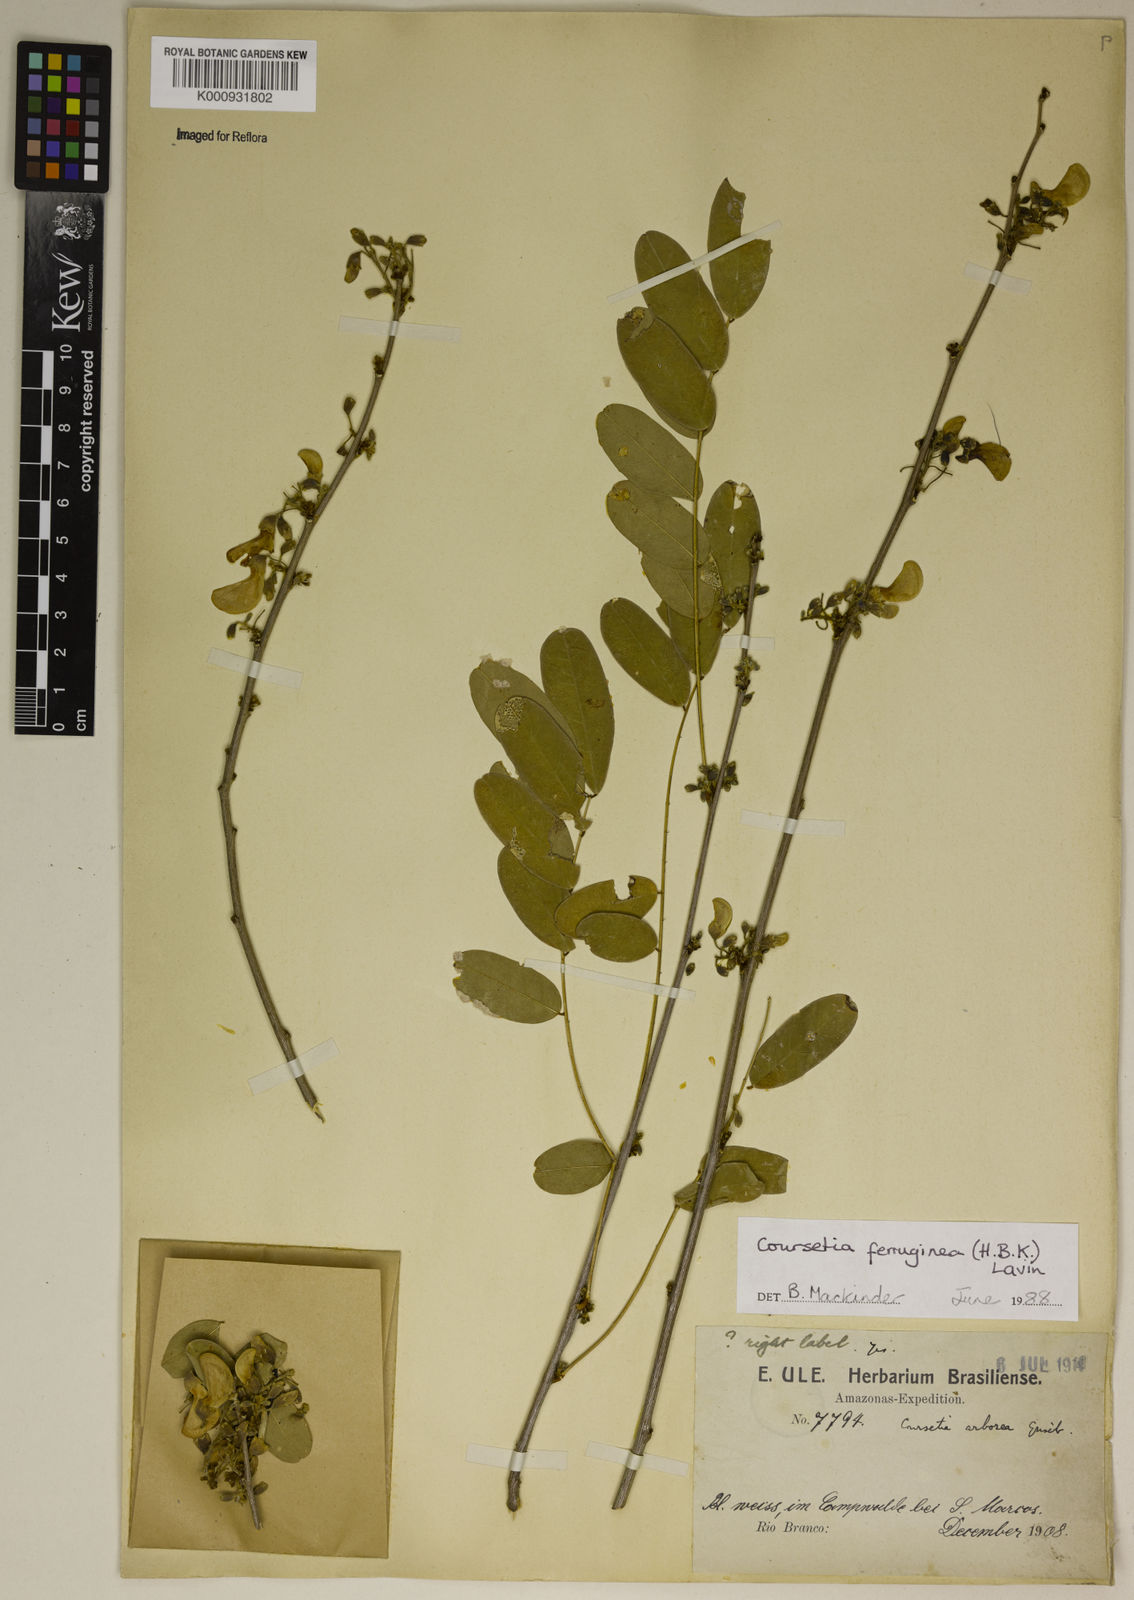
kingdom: Plantae
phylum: Tracheophyta
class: Magnoliopsida
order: Fabales
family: Fabaceae
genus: Coursetia
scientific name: Coursetia ferruginea
